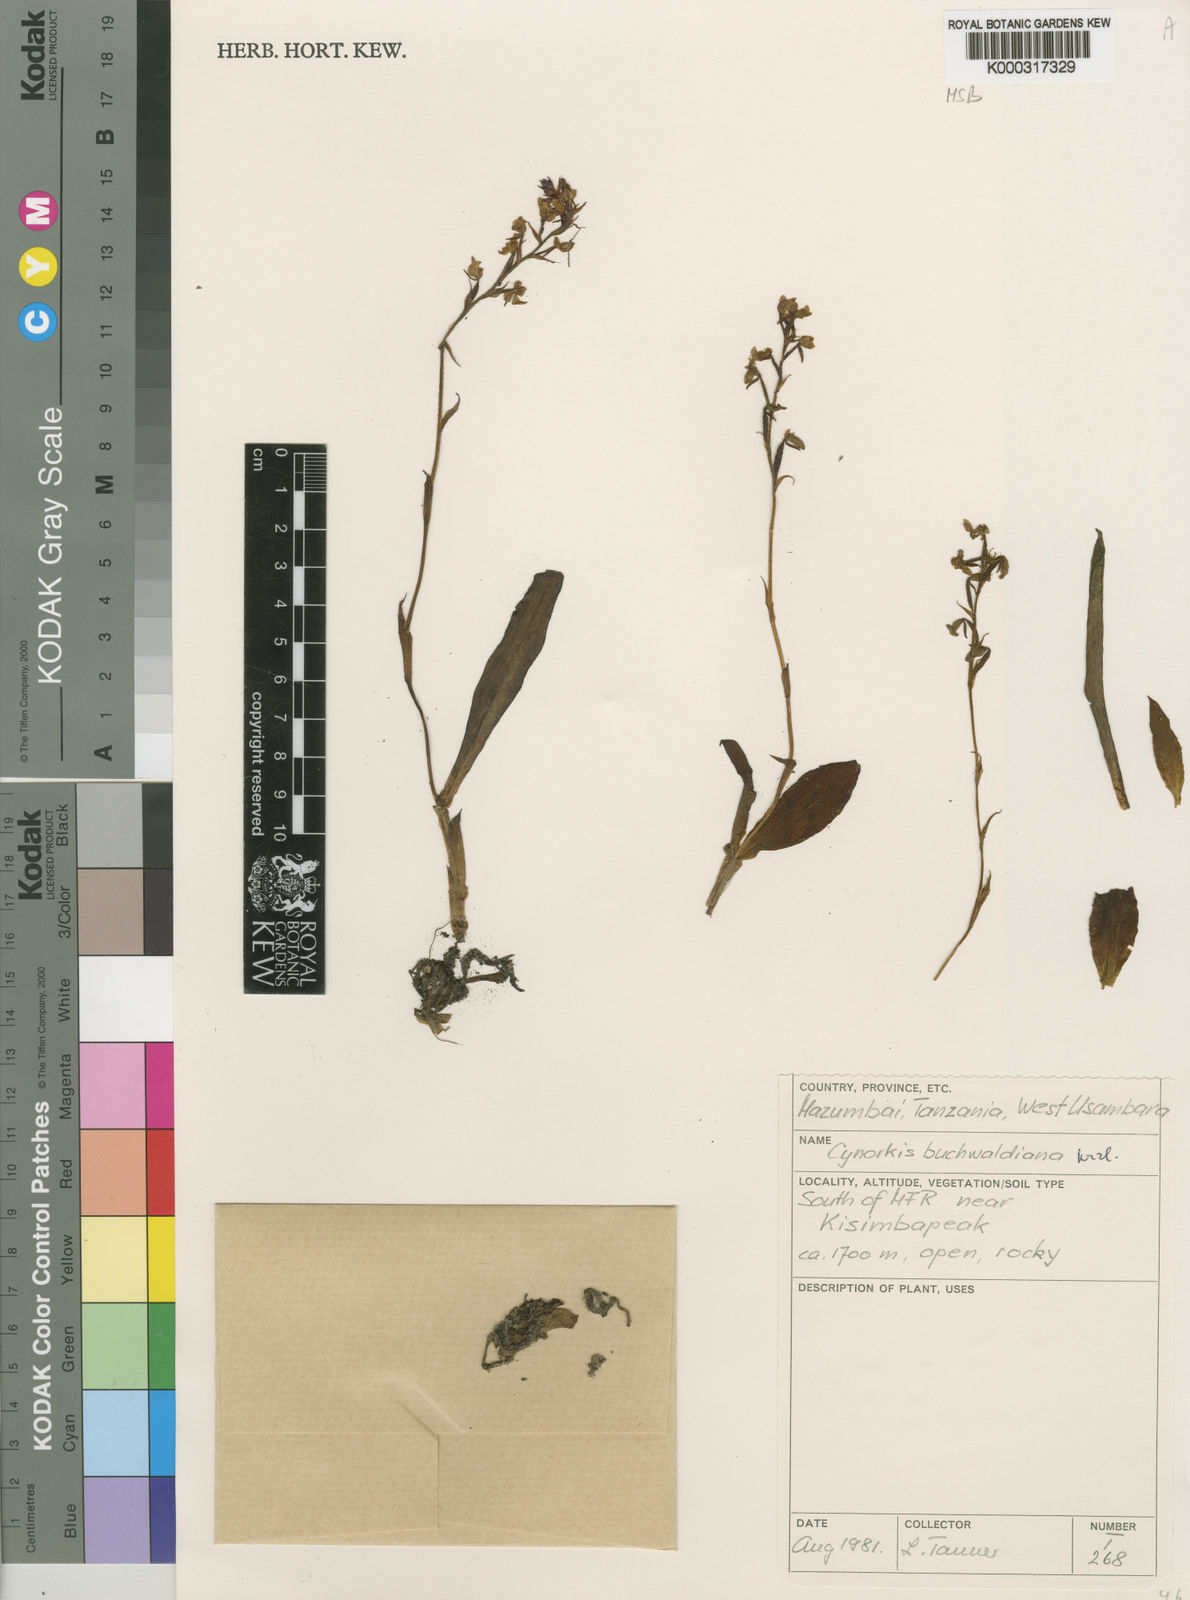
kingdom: Plantae
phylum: Tracheophyta
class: Liliopsida
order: Asparagales
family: Orchidaceae
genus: Cynorkis
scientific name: Cynorkis buchwaldiana
